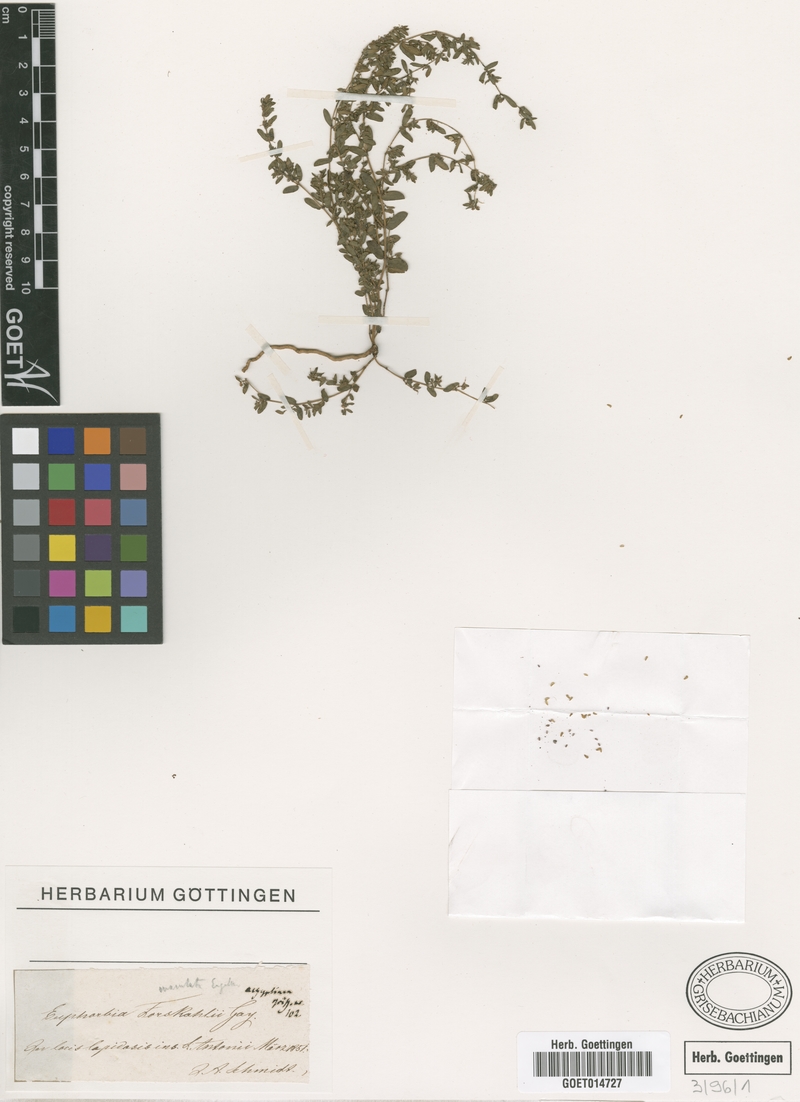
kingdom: Plantae
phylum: Tracheophyta
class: Magnoliopsida
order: Malpighiales
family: Euphorbiaceae
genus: Euphorbia
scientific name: Euphorbia forsskalii
